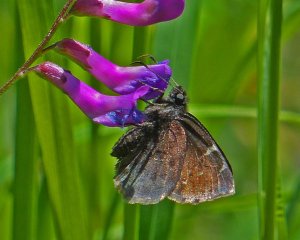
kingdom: Animalia
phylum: Arthropoda
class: Insecta
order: Lepidoptera
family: Hesperiidae
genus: Autochton
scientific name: Autochton
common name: Northern Cloudywing
